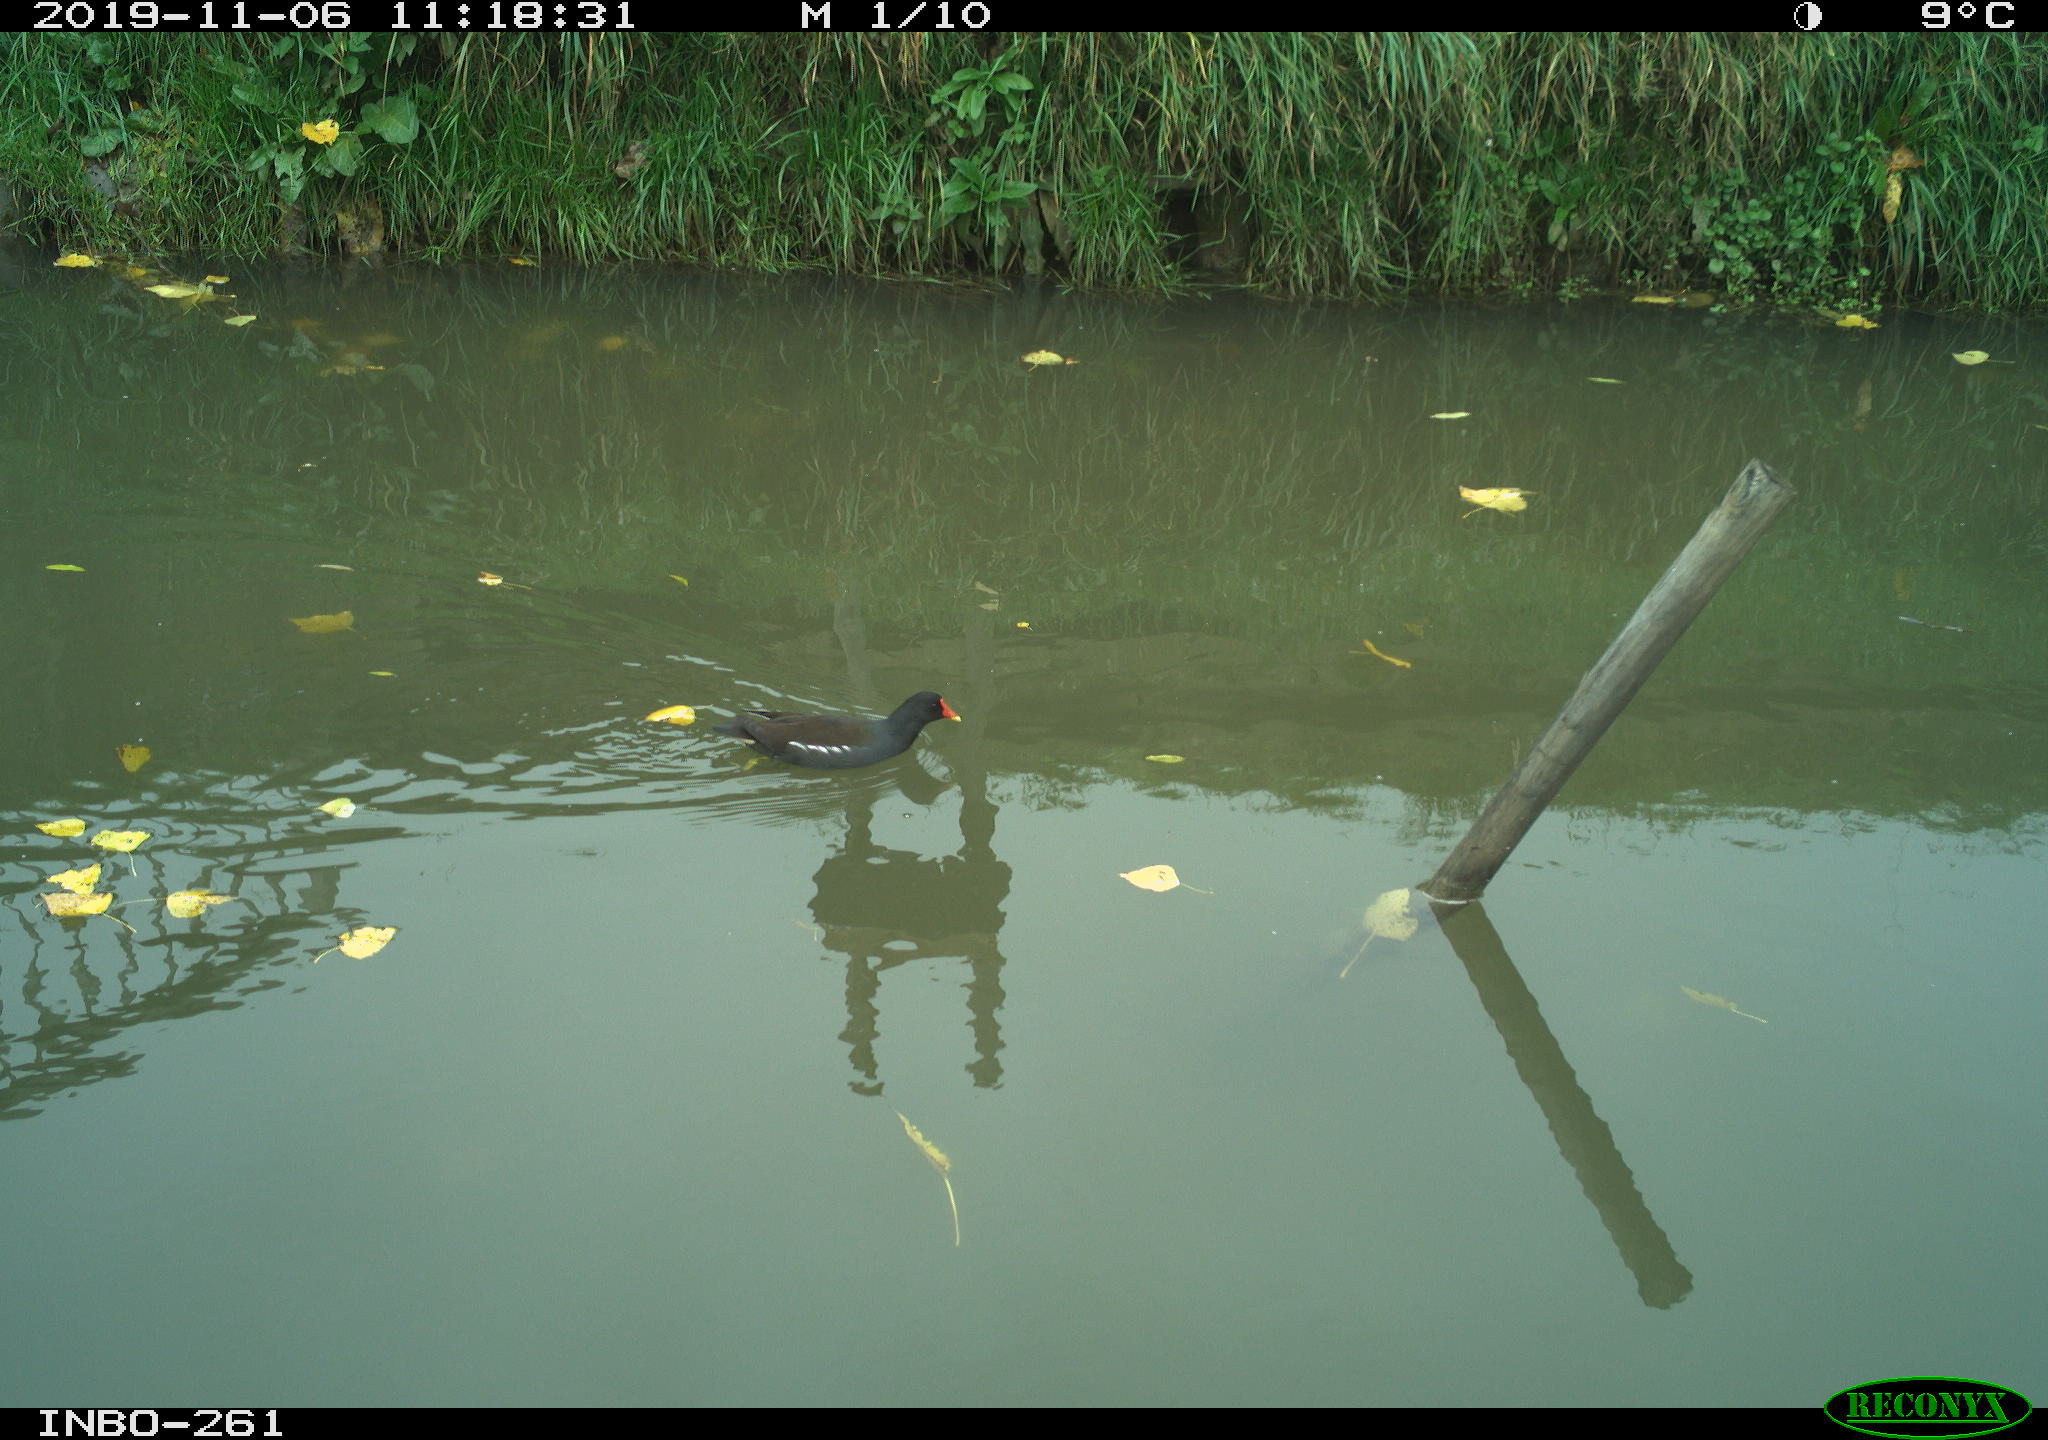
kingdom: Animalia
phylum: Chordata
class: Aves
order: Gruiformes
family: Rallidae
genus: Gallinula
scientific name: Gallinula chloropus
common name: Common moorhen
